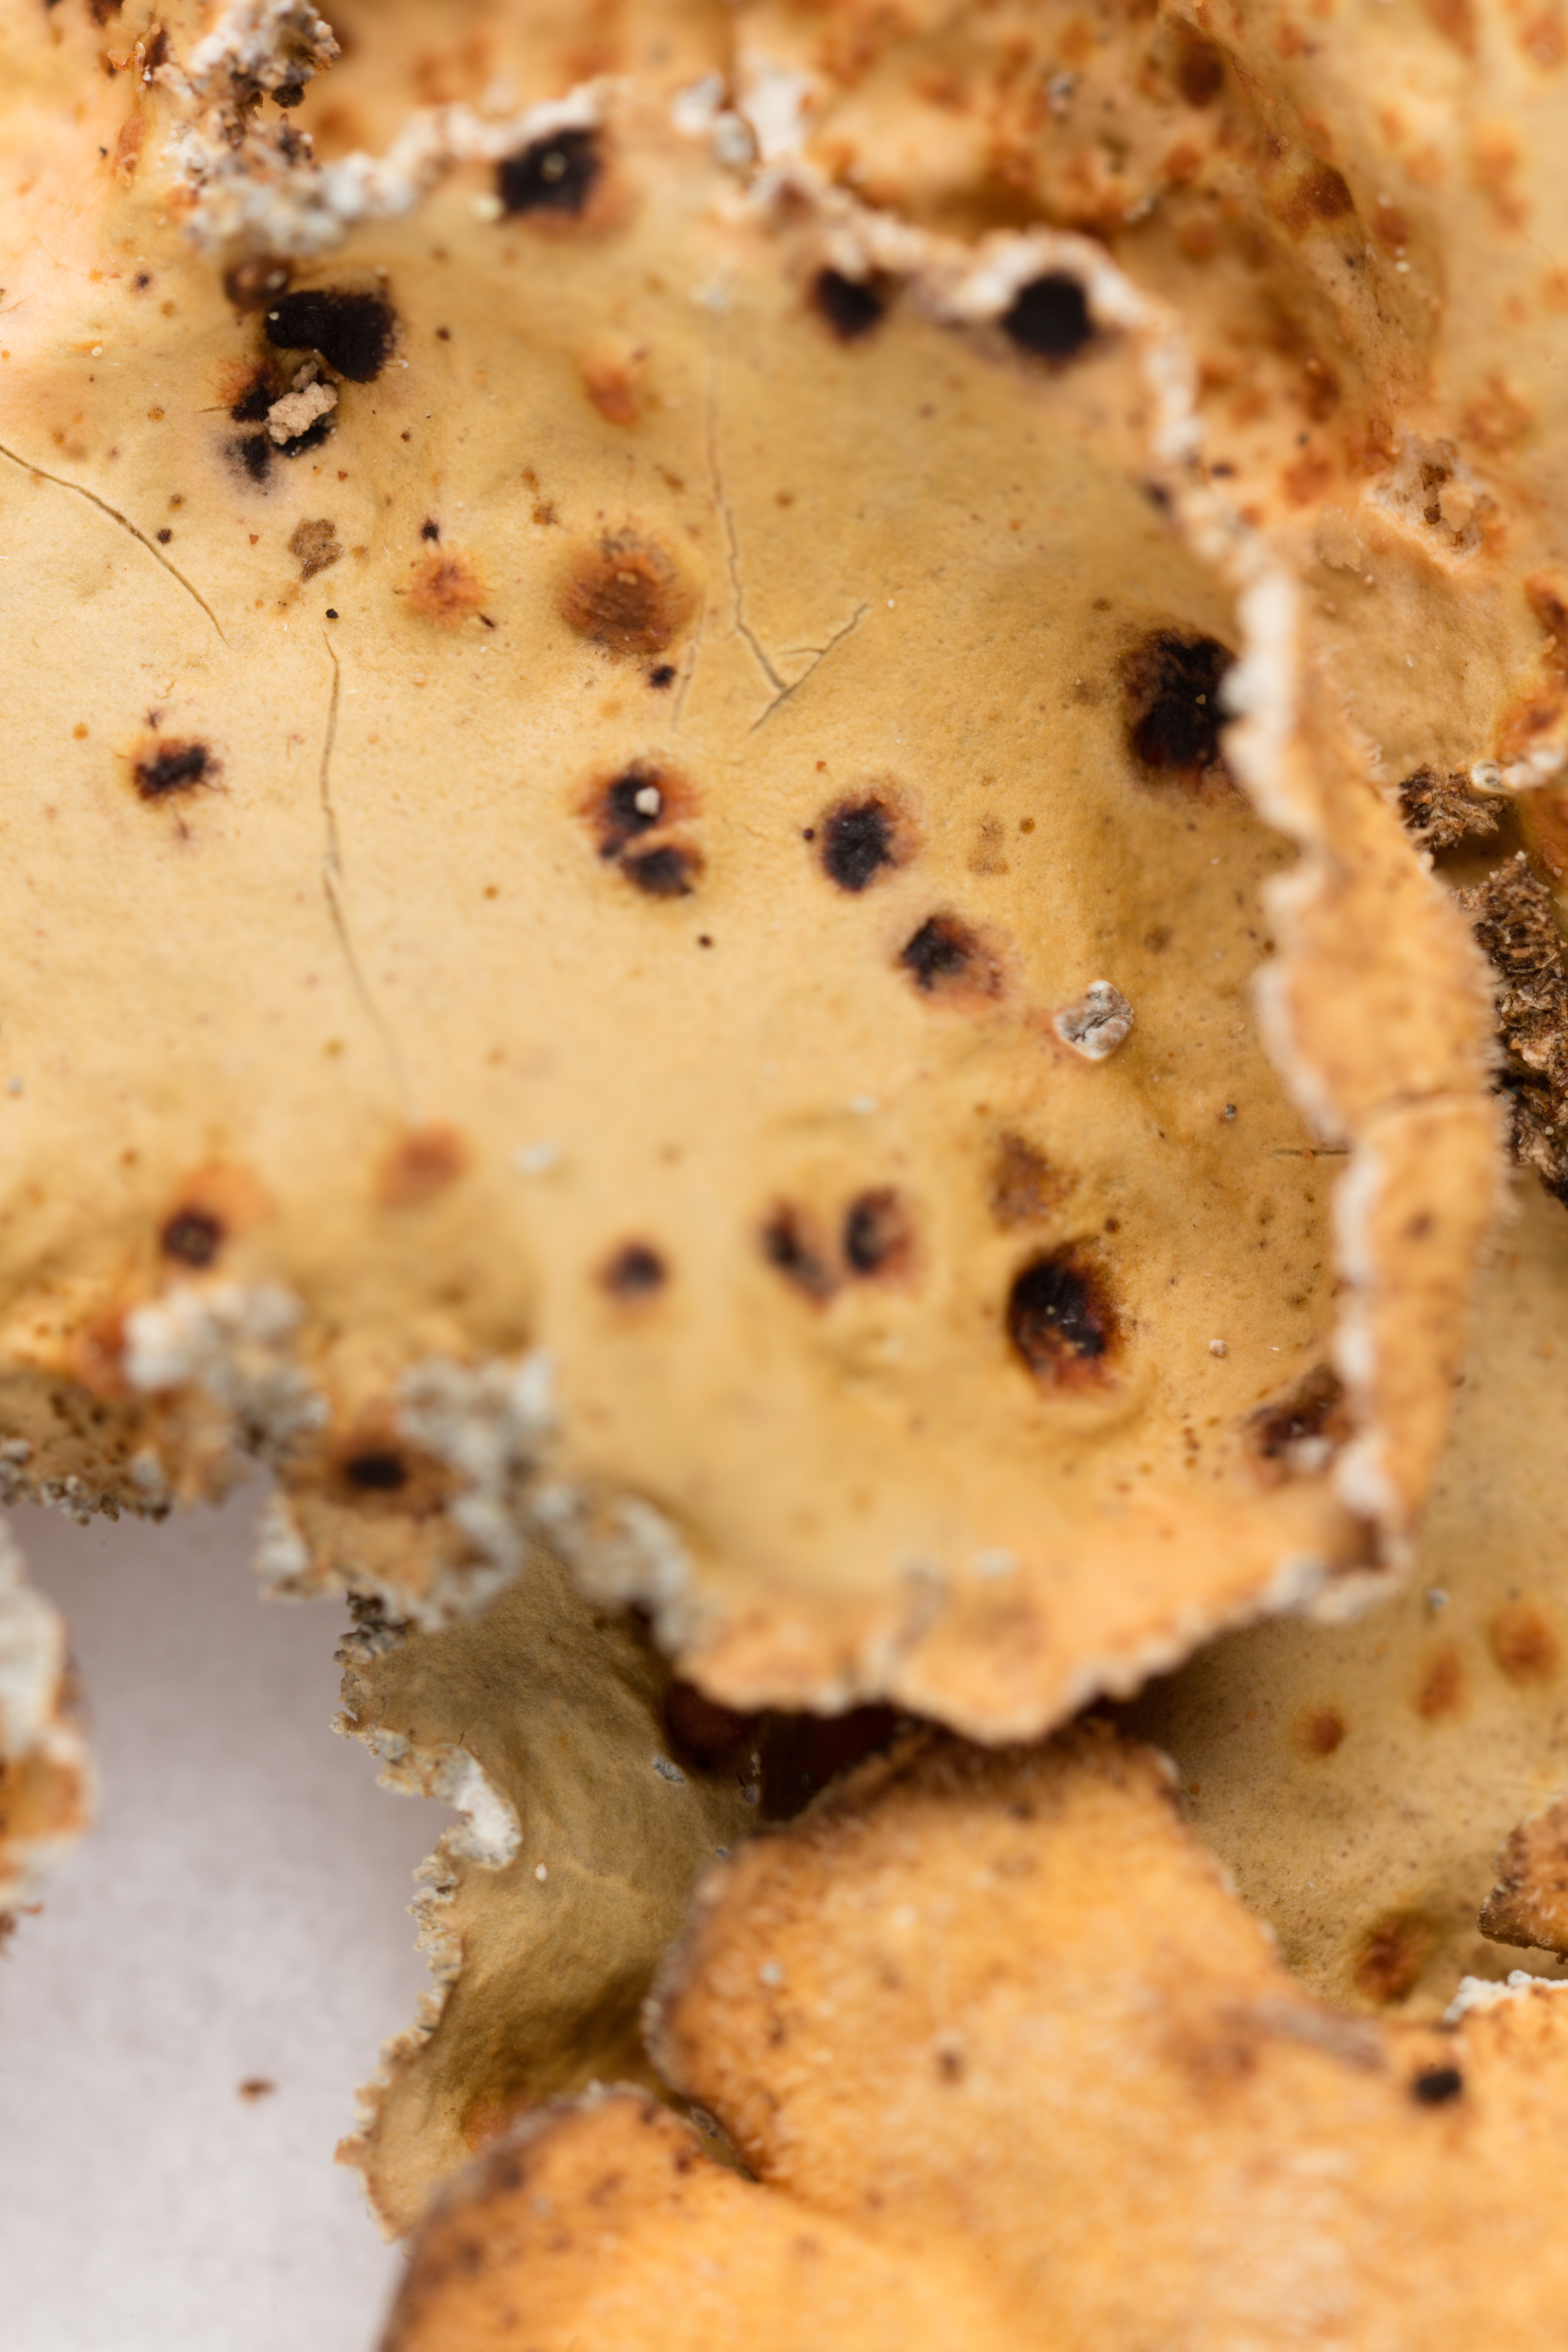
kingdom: Fungi
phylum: Ascomycota
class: Lecanoromycetes
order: Peltigerales
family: Lobariaceae
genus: Sticta
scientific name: Sticta limbata
